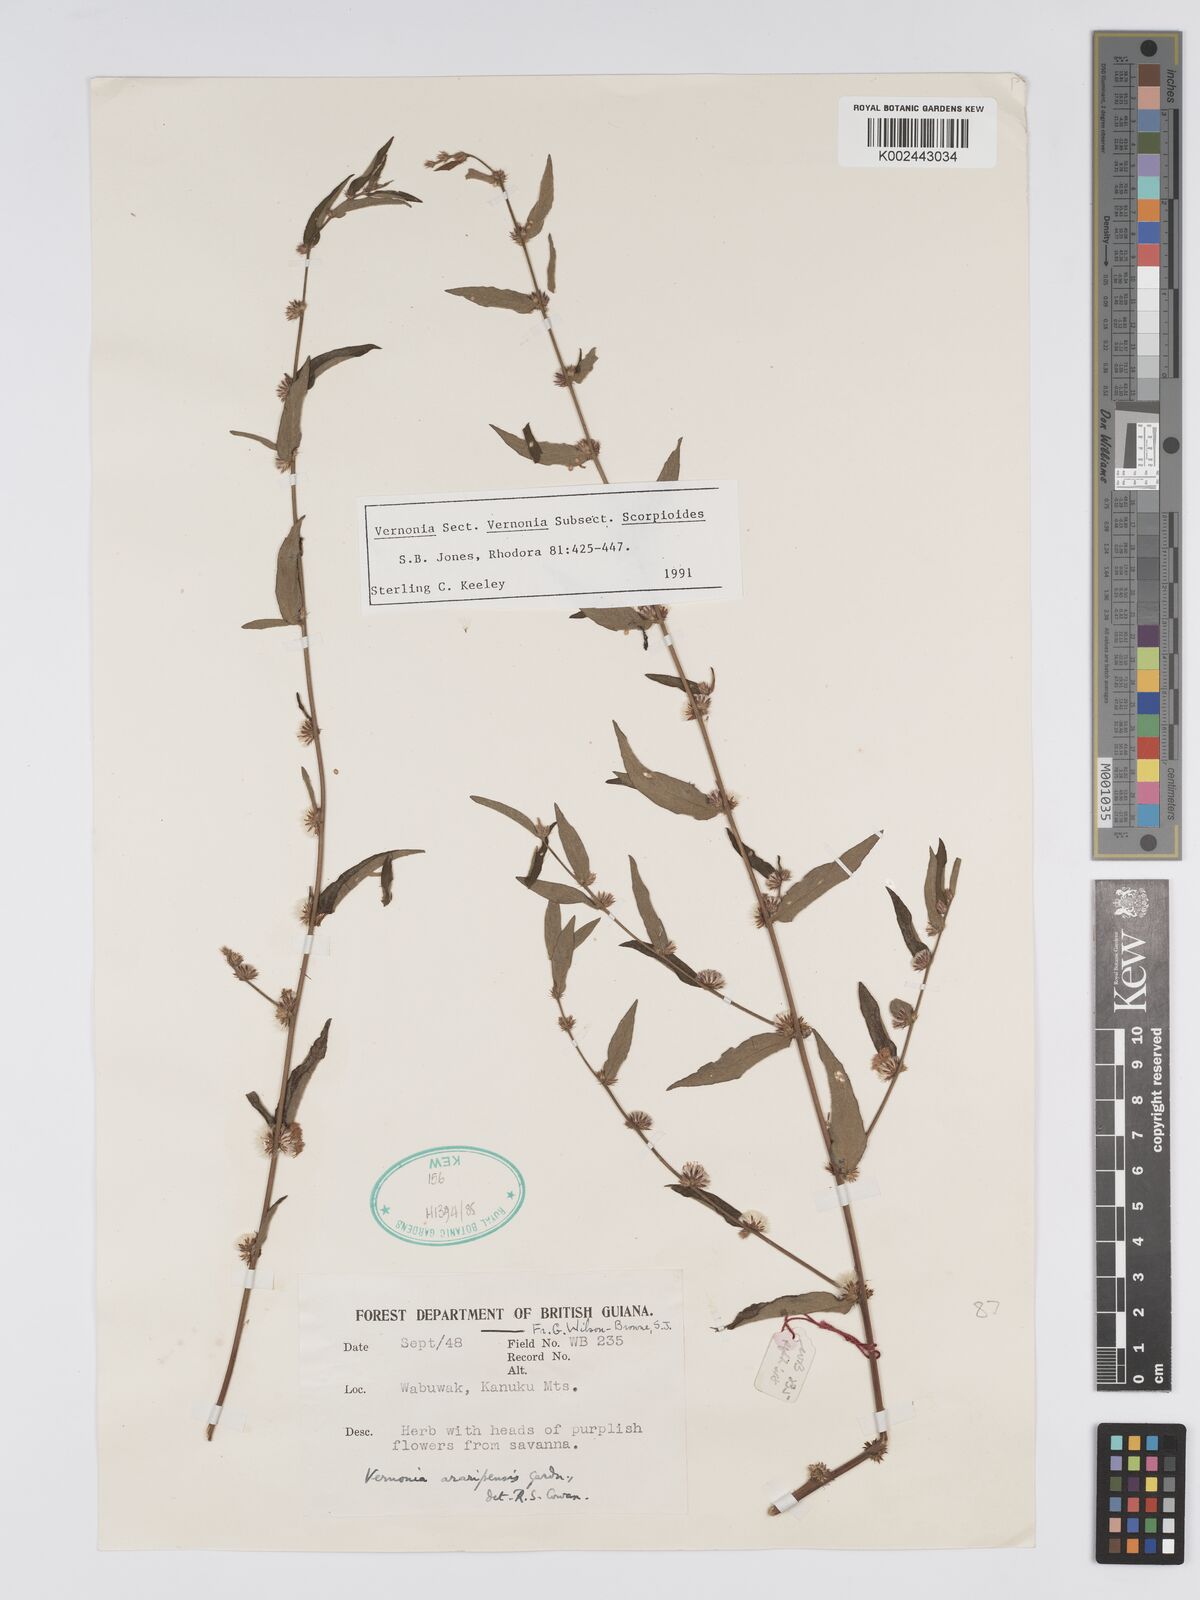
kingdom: Plantae
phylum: Tracheophyta
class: Magnoliopsida
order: Asterales
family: Asteraceae
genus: Lepidaploa
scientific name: Lepidaploa araripensis
